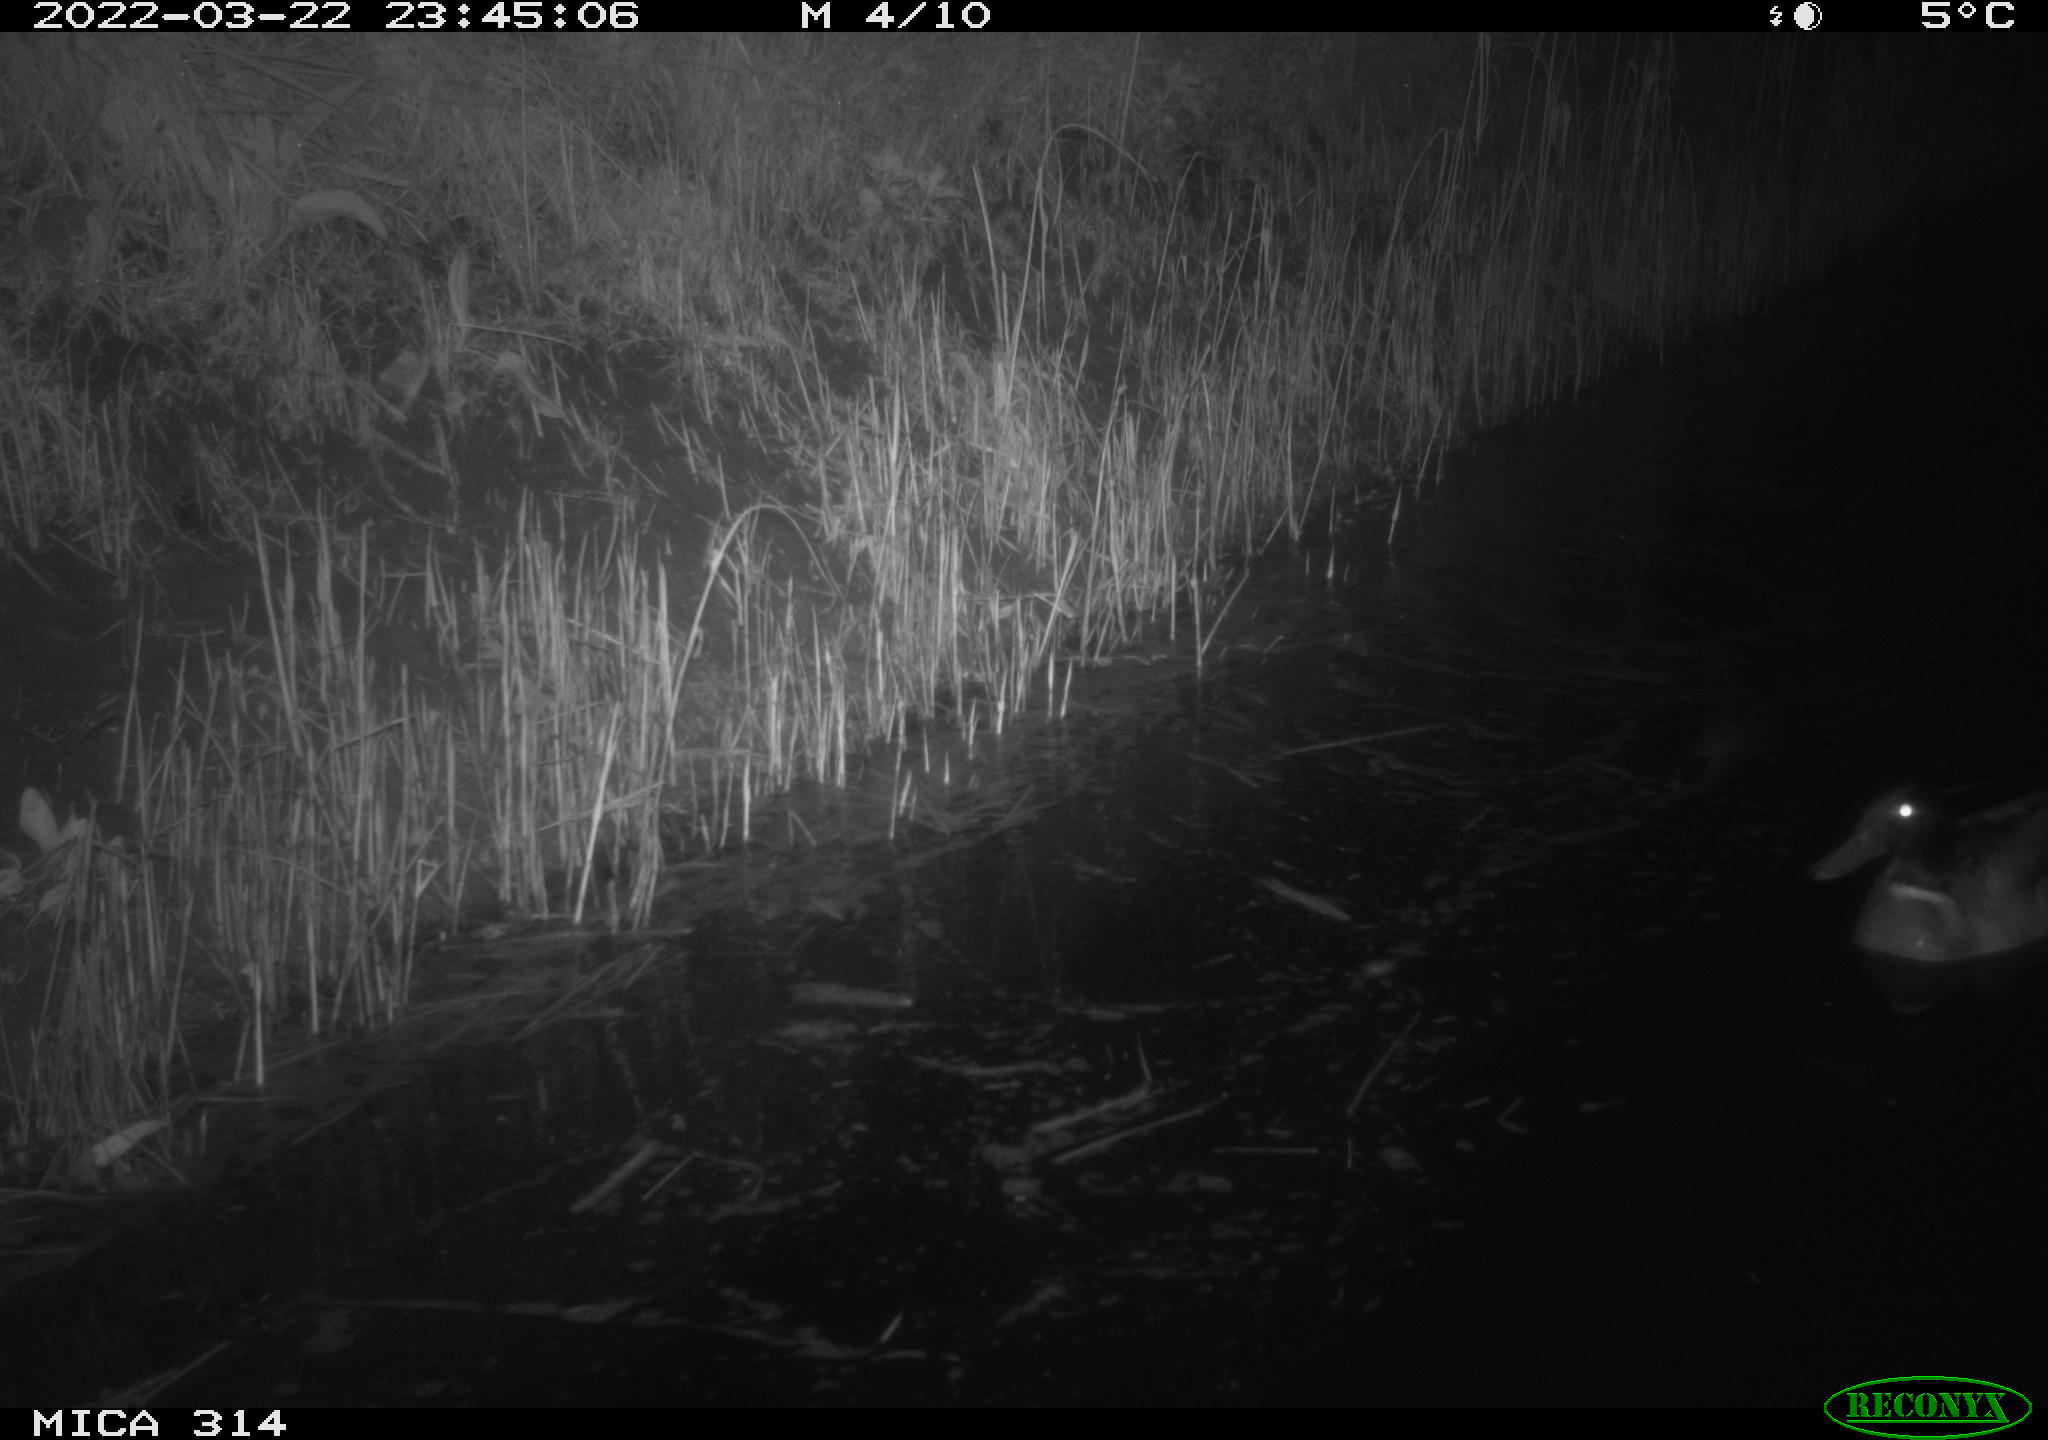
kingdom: Animalia
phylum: Chordata
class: Aves
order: Anseriformes
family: Anatidae
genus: Anas
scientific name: Anas platyrhynchos
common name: Mallard
